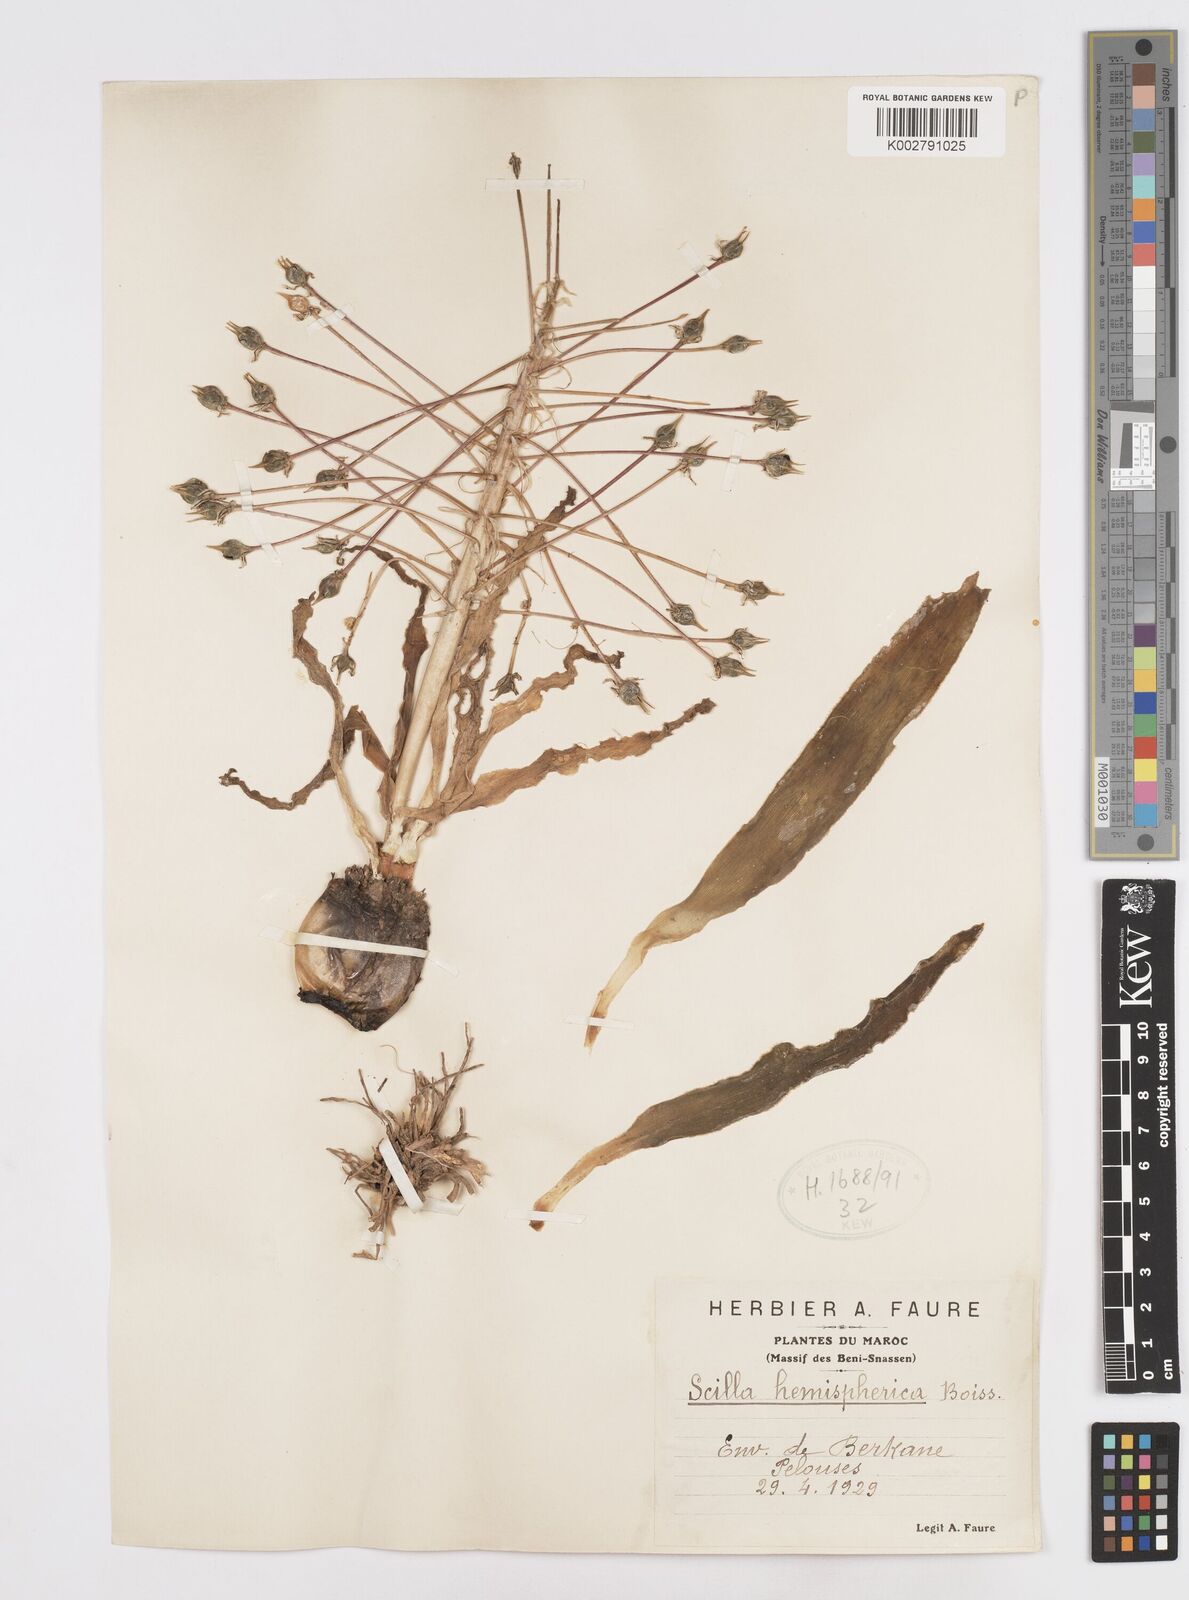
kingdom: Plantae
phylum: Tracheophyta
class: Liliopsida
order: Asparagales
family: Asparagaceae
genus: Scilla
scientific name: Scilla peruviana
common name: Portuguese squill
